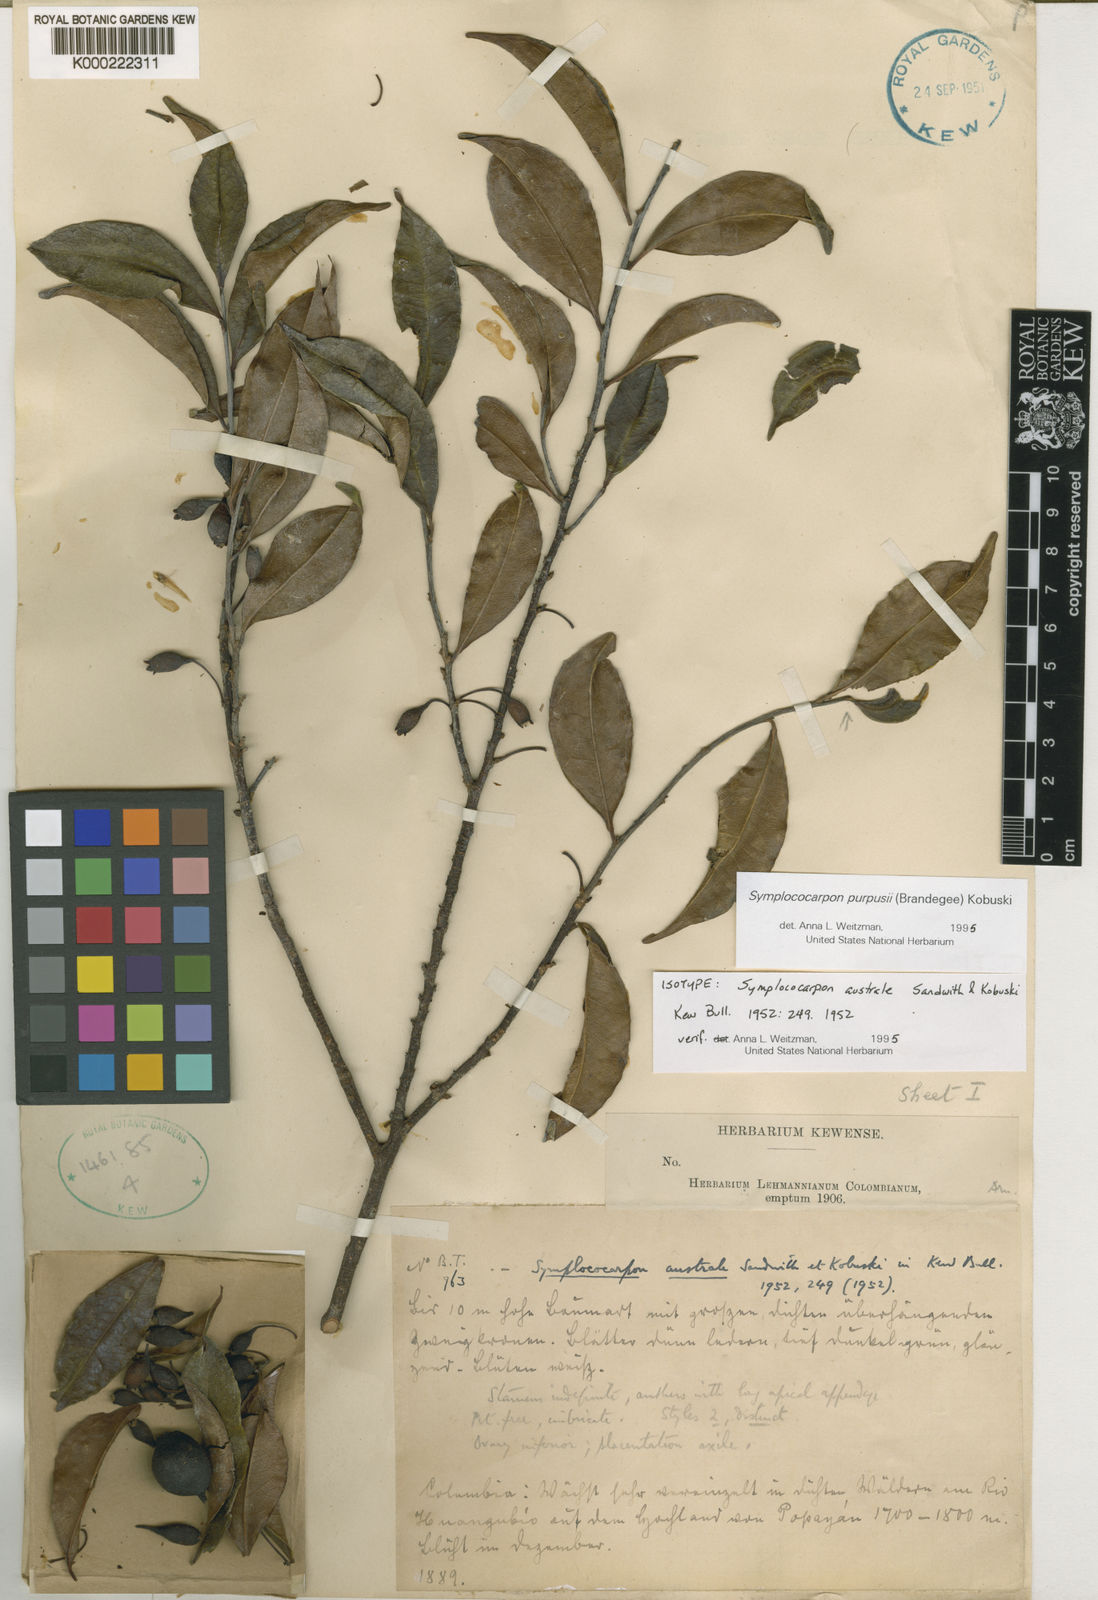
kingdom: Plantae
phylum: Tracheophyta
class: Magnoliopsida
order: Ericales
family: Pentaphylacaceae
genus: Symplococarpon
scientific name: Symplococarpon purpusii
